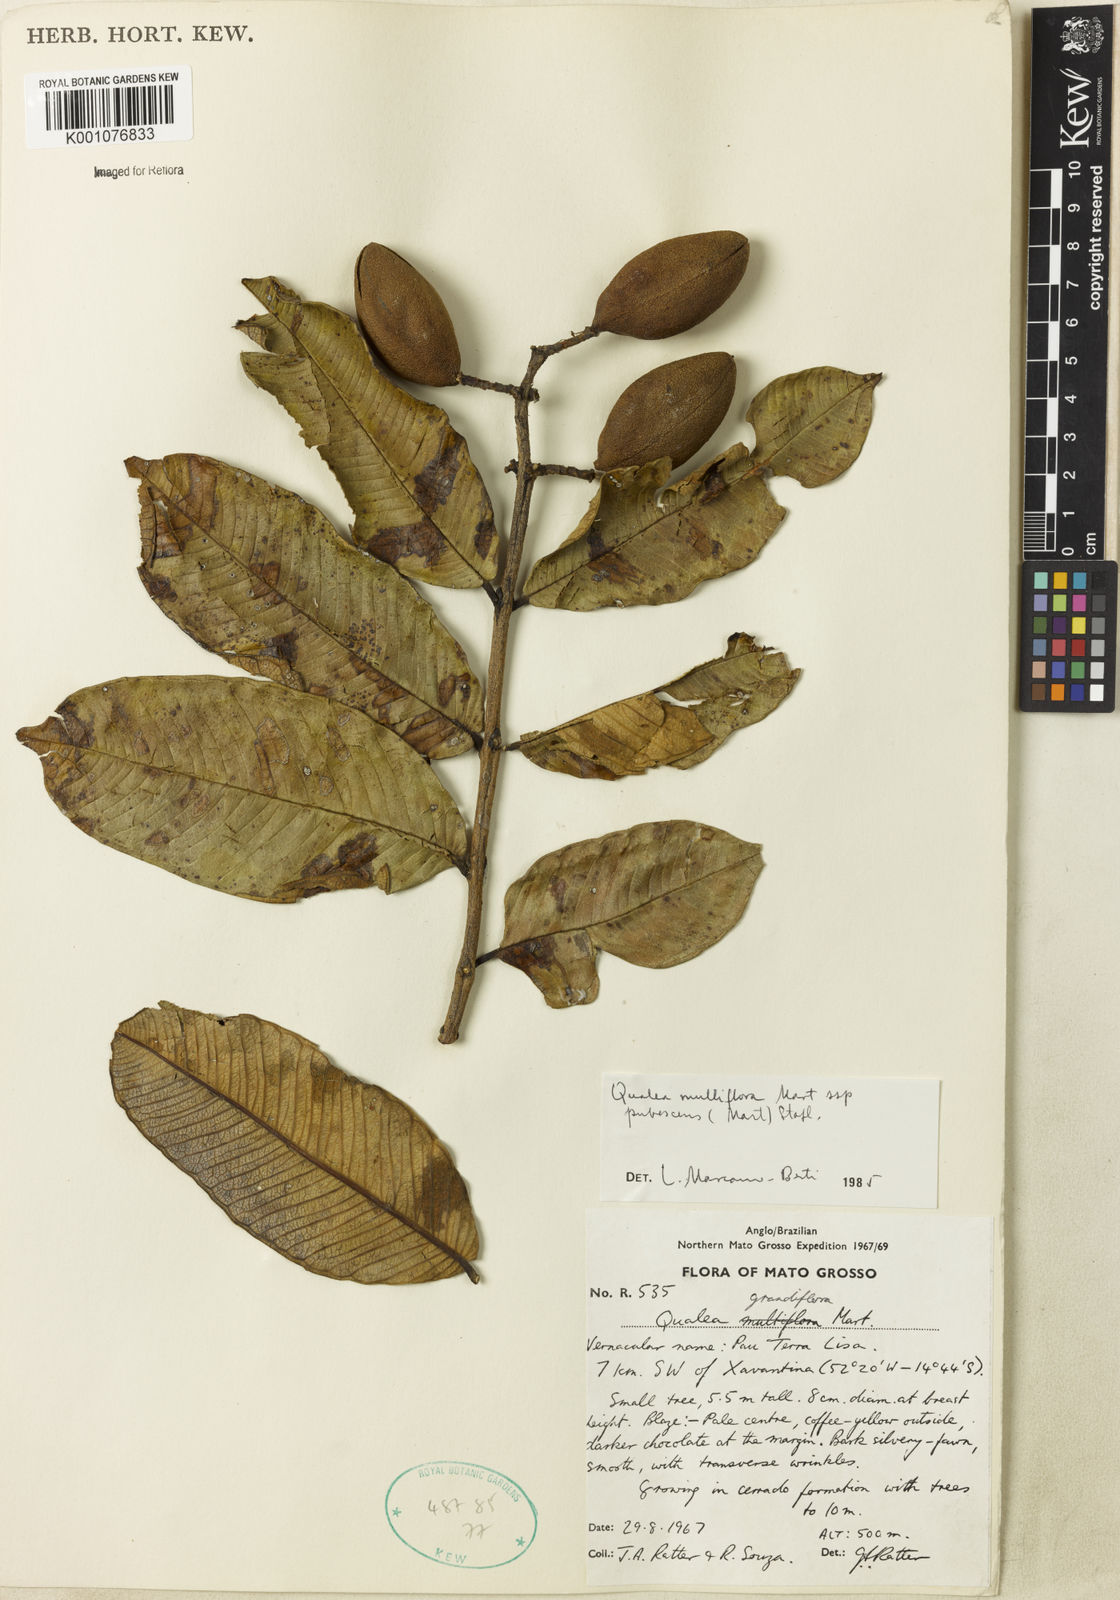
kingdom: Plantae
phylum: Tracheophyta
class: Magnoliopsida
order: Myrtales
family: Vochysiaceae
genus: Qualea
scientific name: Qualea multiflora
